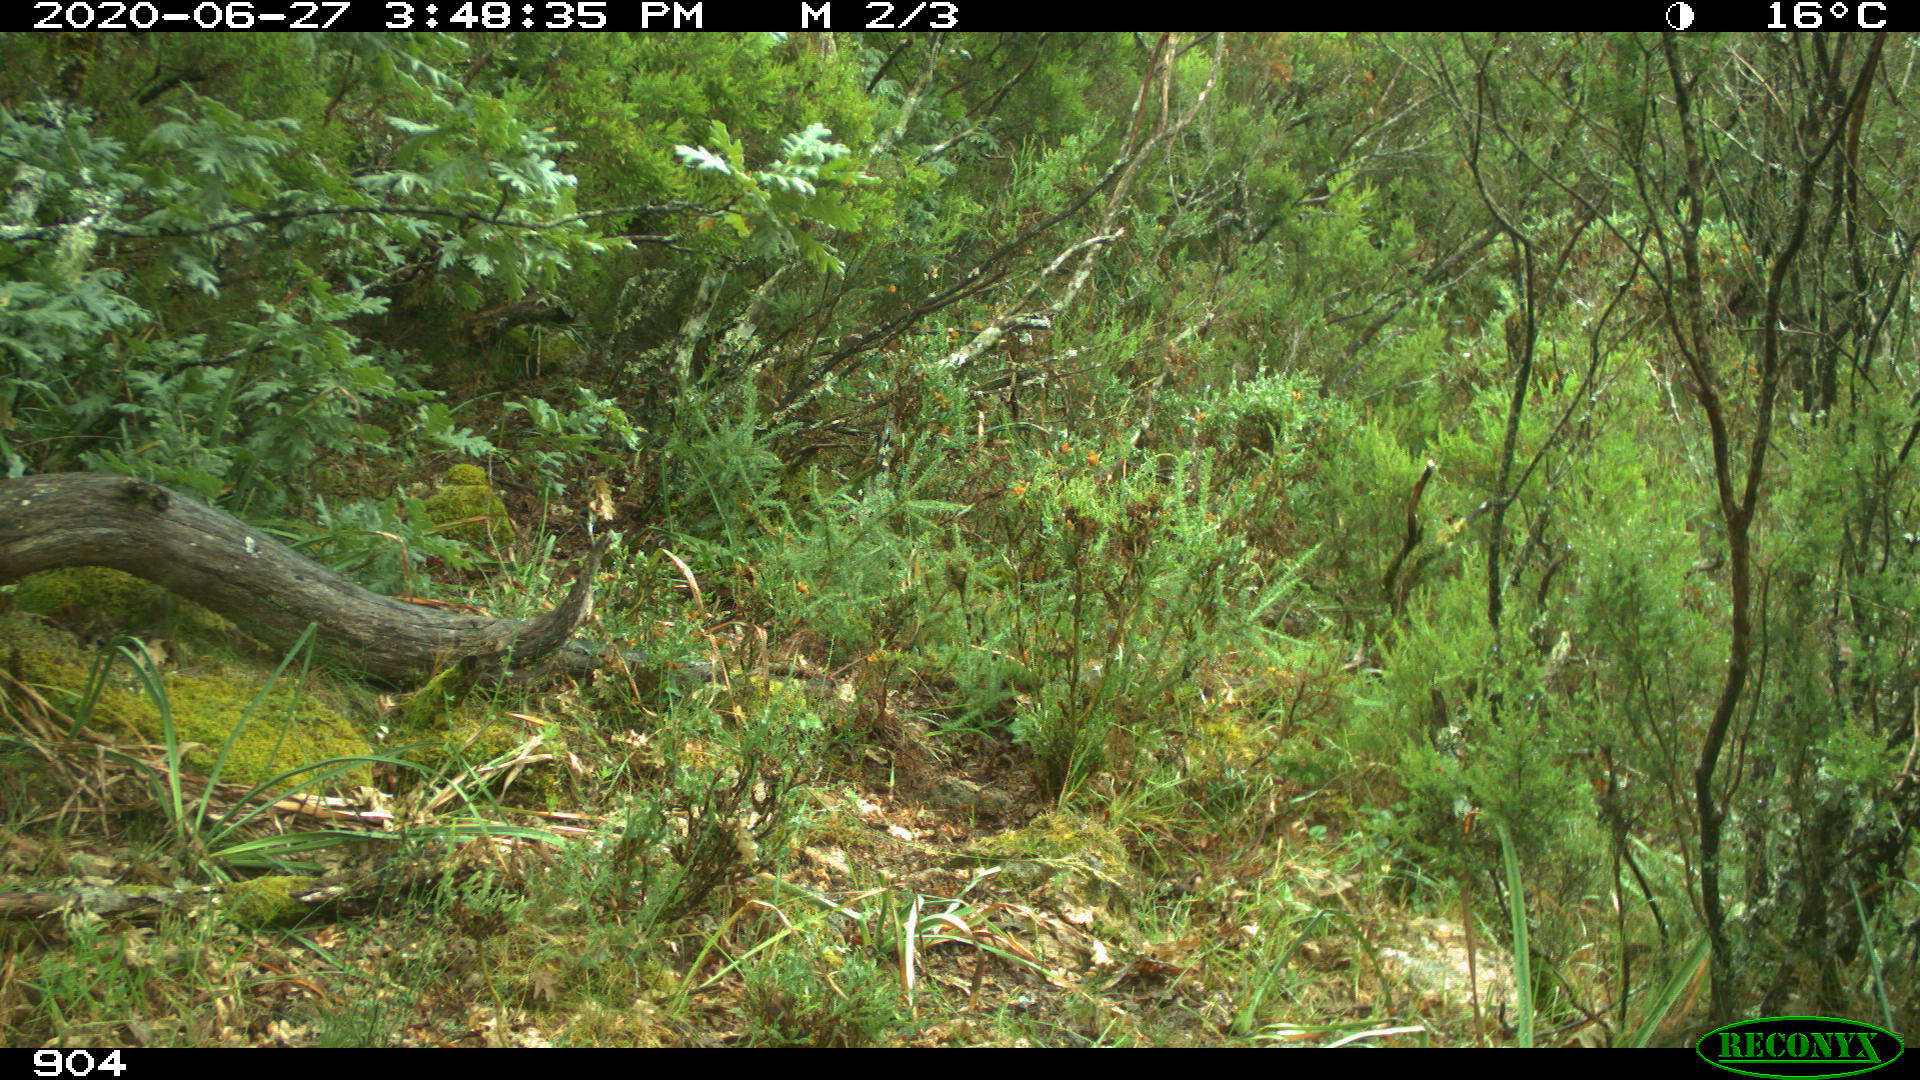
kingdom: Animalia
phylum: Chordata
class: Mammalia
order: Artiodactyla
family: Bovidae
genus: Bos
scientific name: Bos taurus
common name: Domesticated cattle
